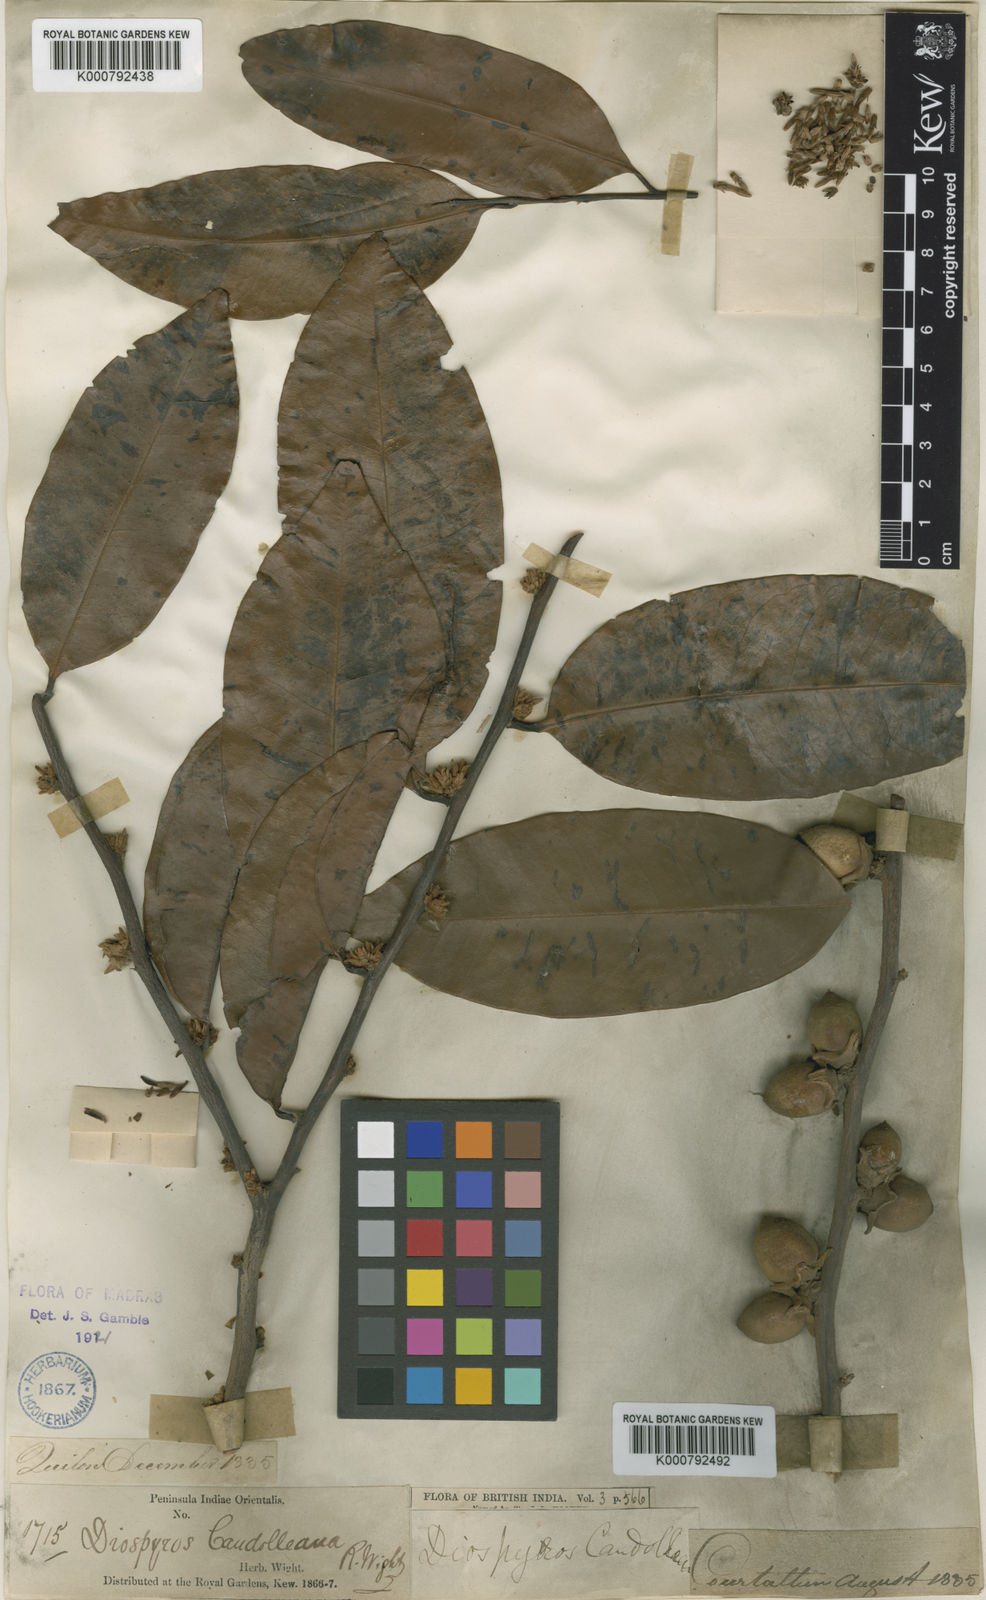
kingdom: Plantae
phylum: Tracheophyta
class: Magnoliopsida
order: Ericales
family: Ebenaceae
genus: Diospyros
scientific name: Diospyros candolleana
